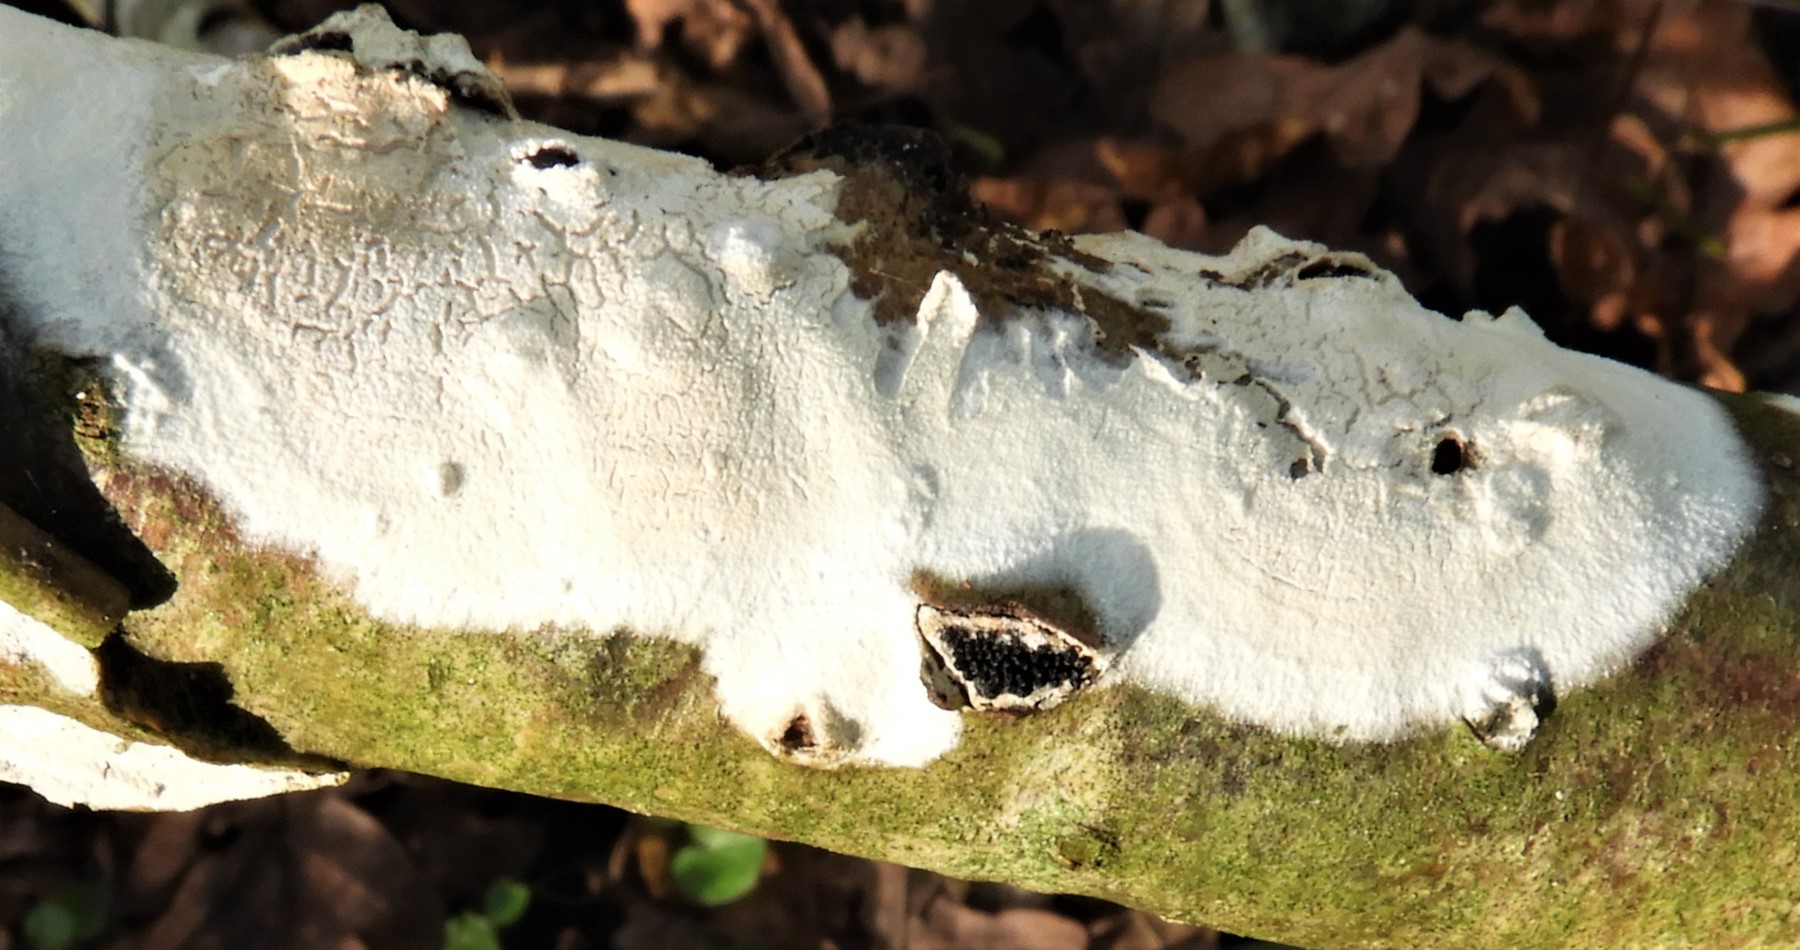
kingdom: Fungi
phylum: Basidiomycota
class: Agaricomycetes
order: Corticiales
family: Corticiaceae
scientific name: Corticiaceae
